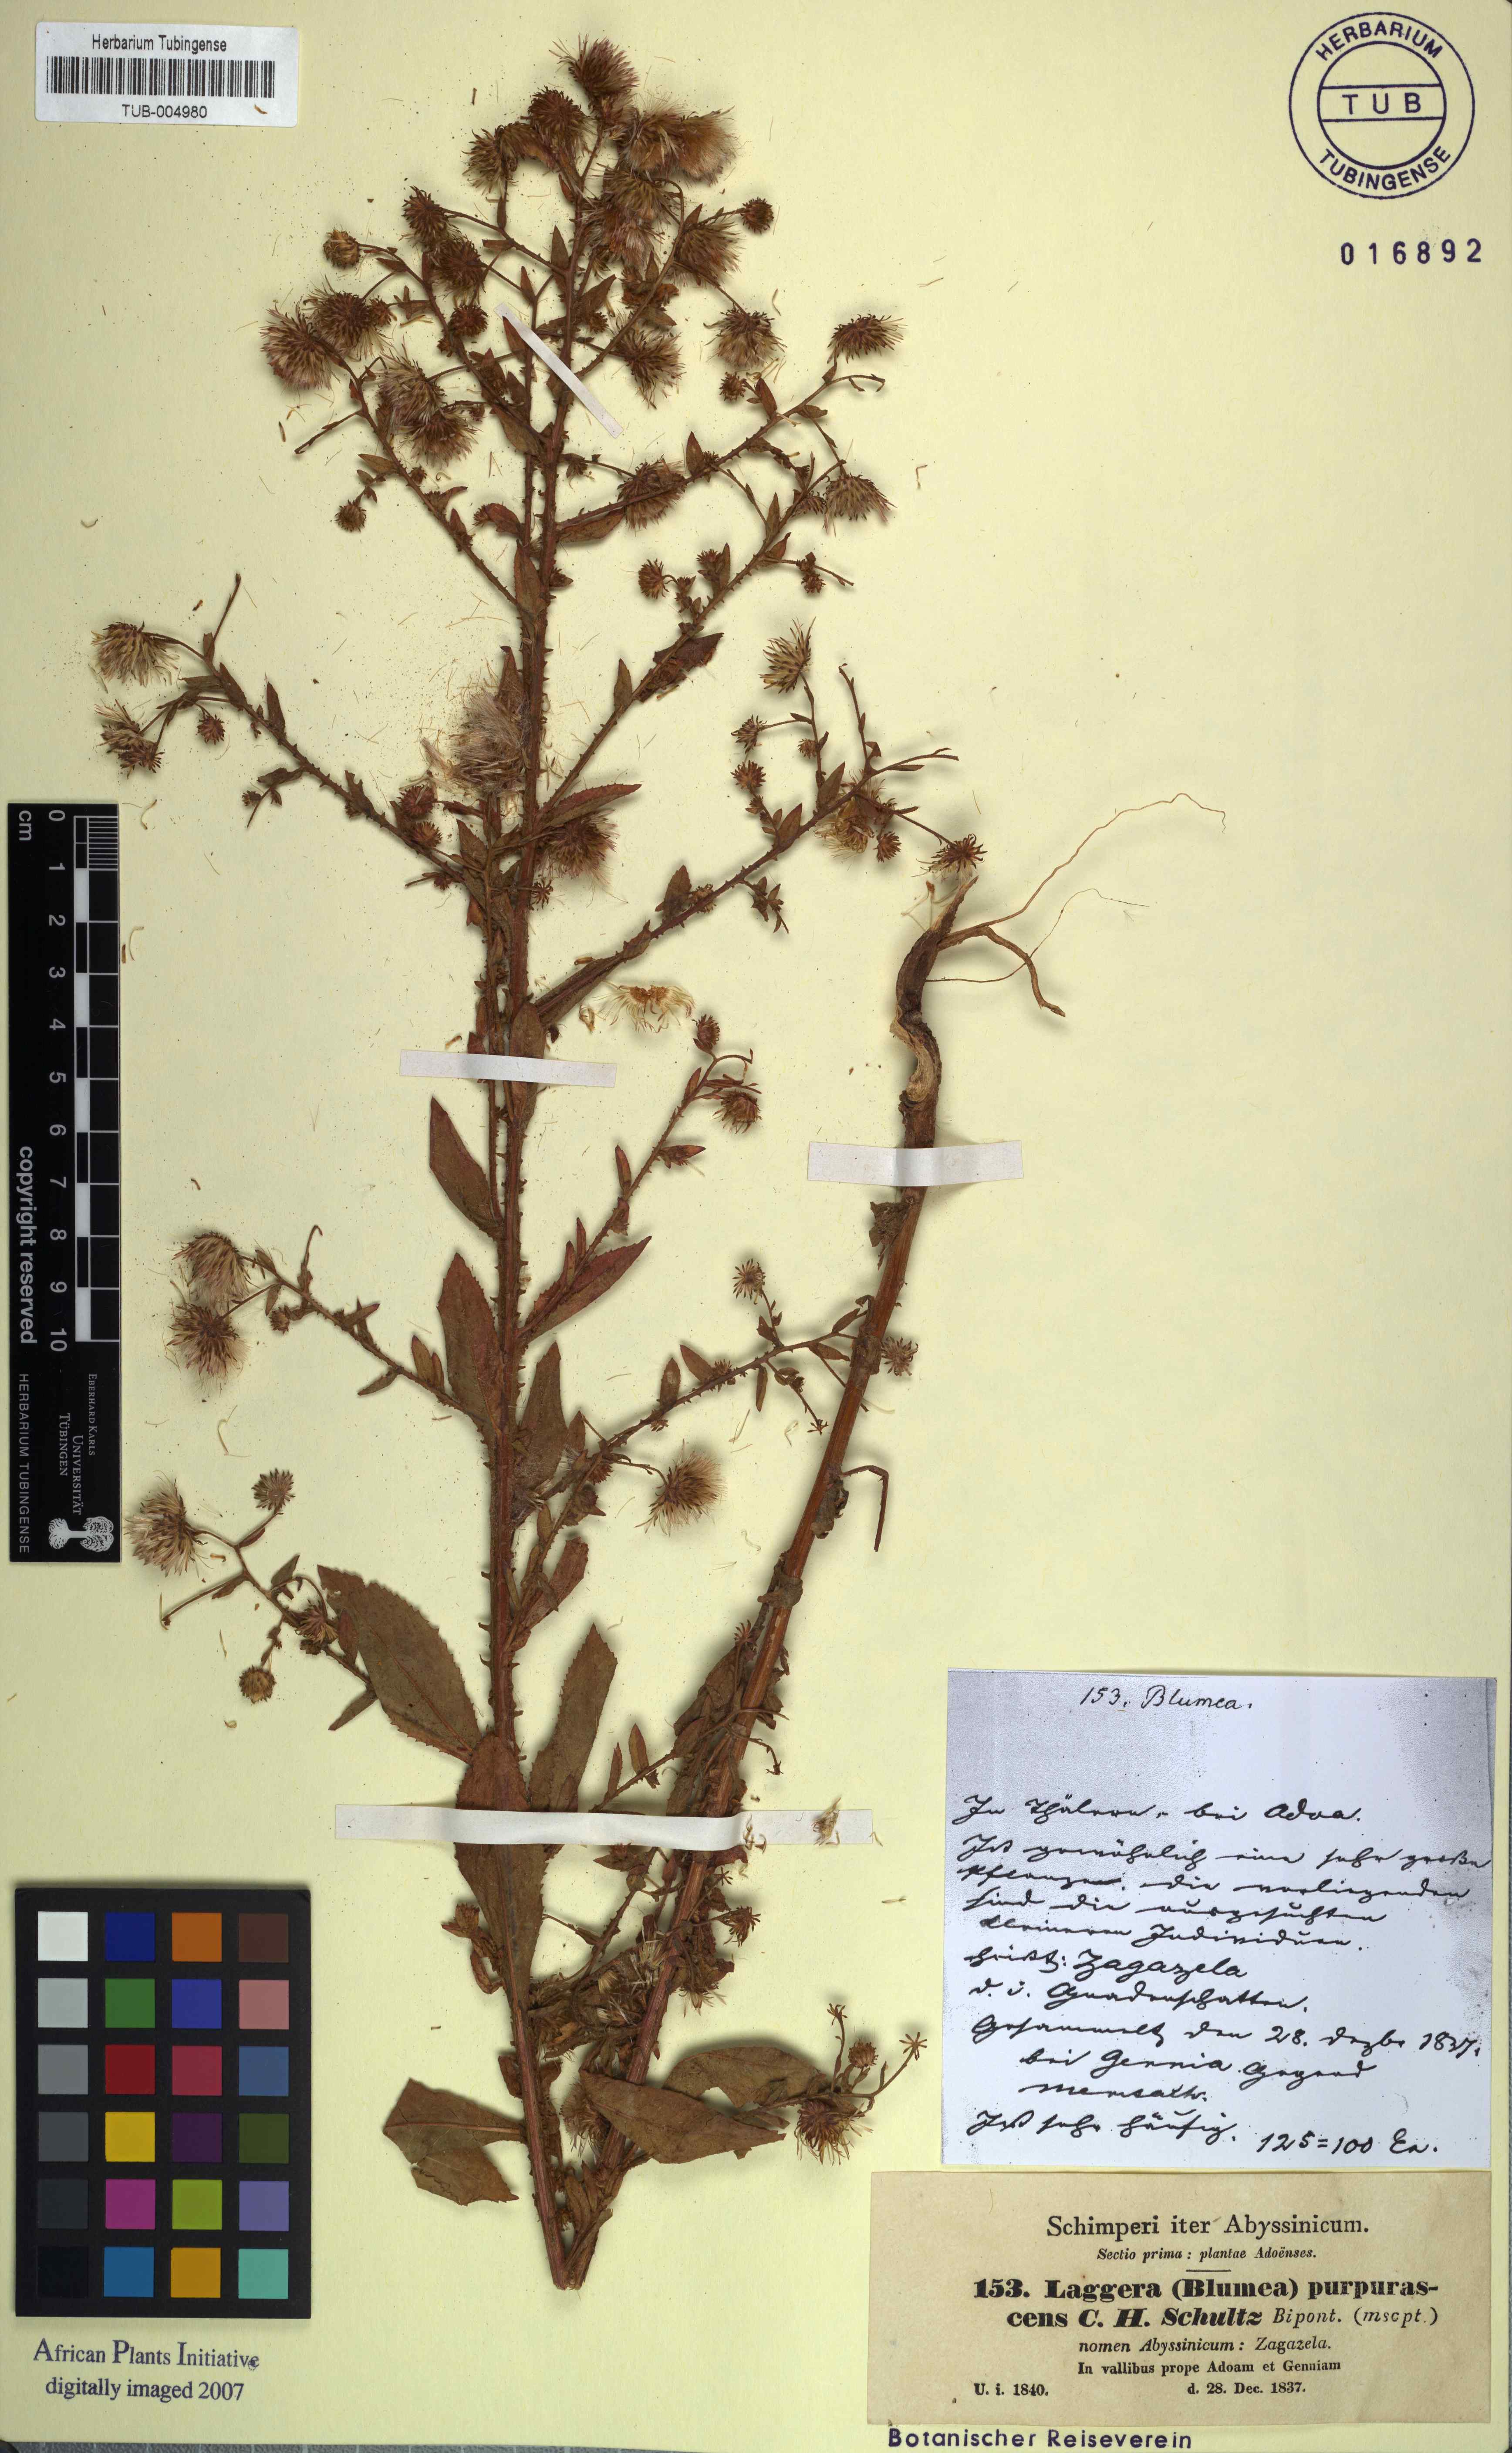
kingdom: Plantae
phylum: Tracheophyta
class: Magnoliopsida
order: Asterales
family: Asteraceae
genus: Laggera
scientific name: Laggera crispata
